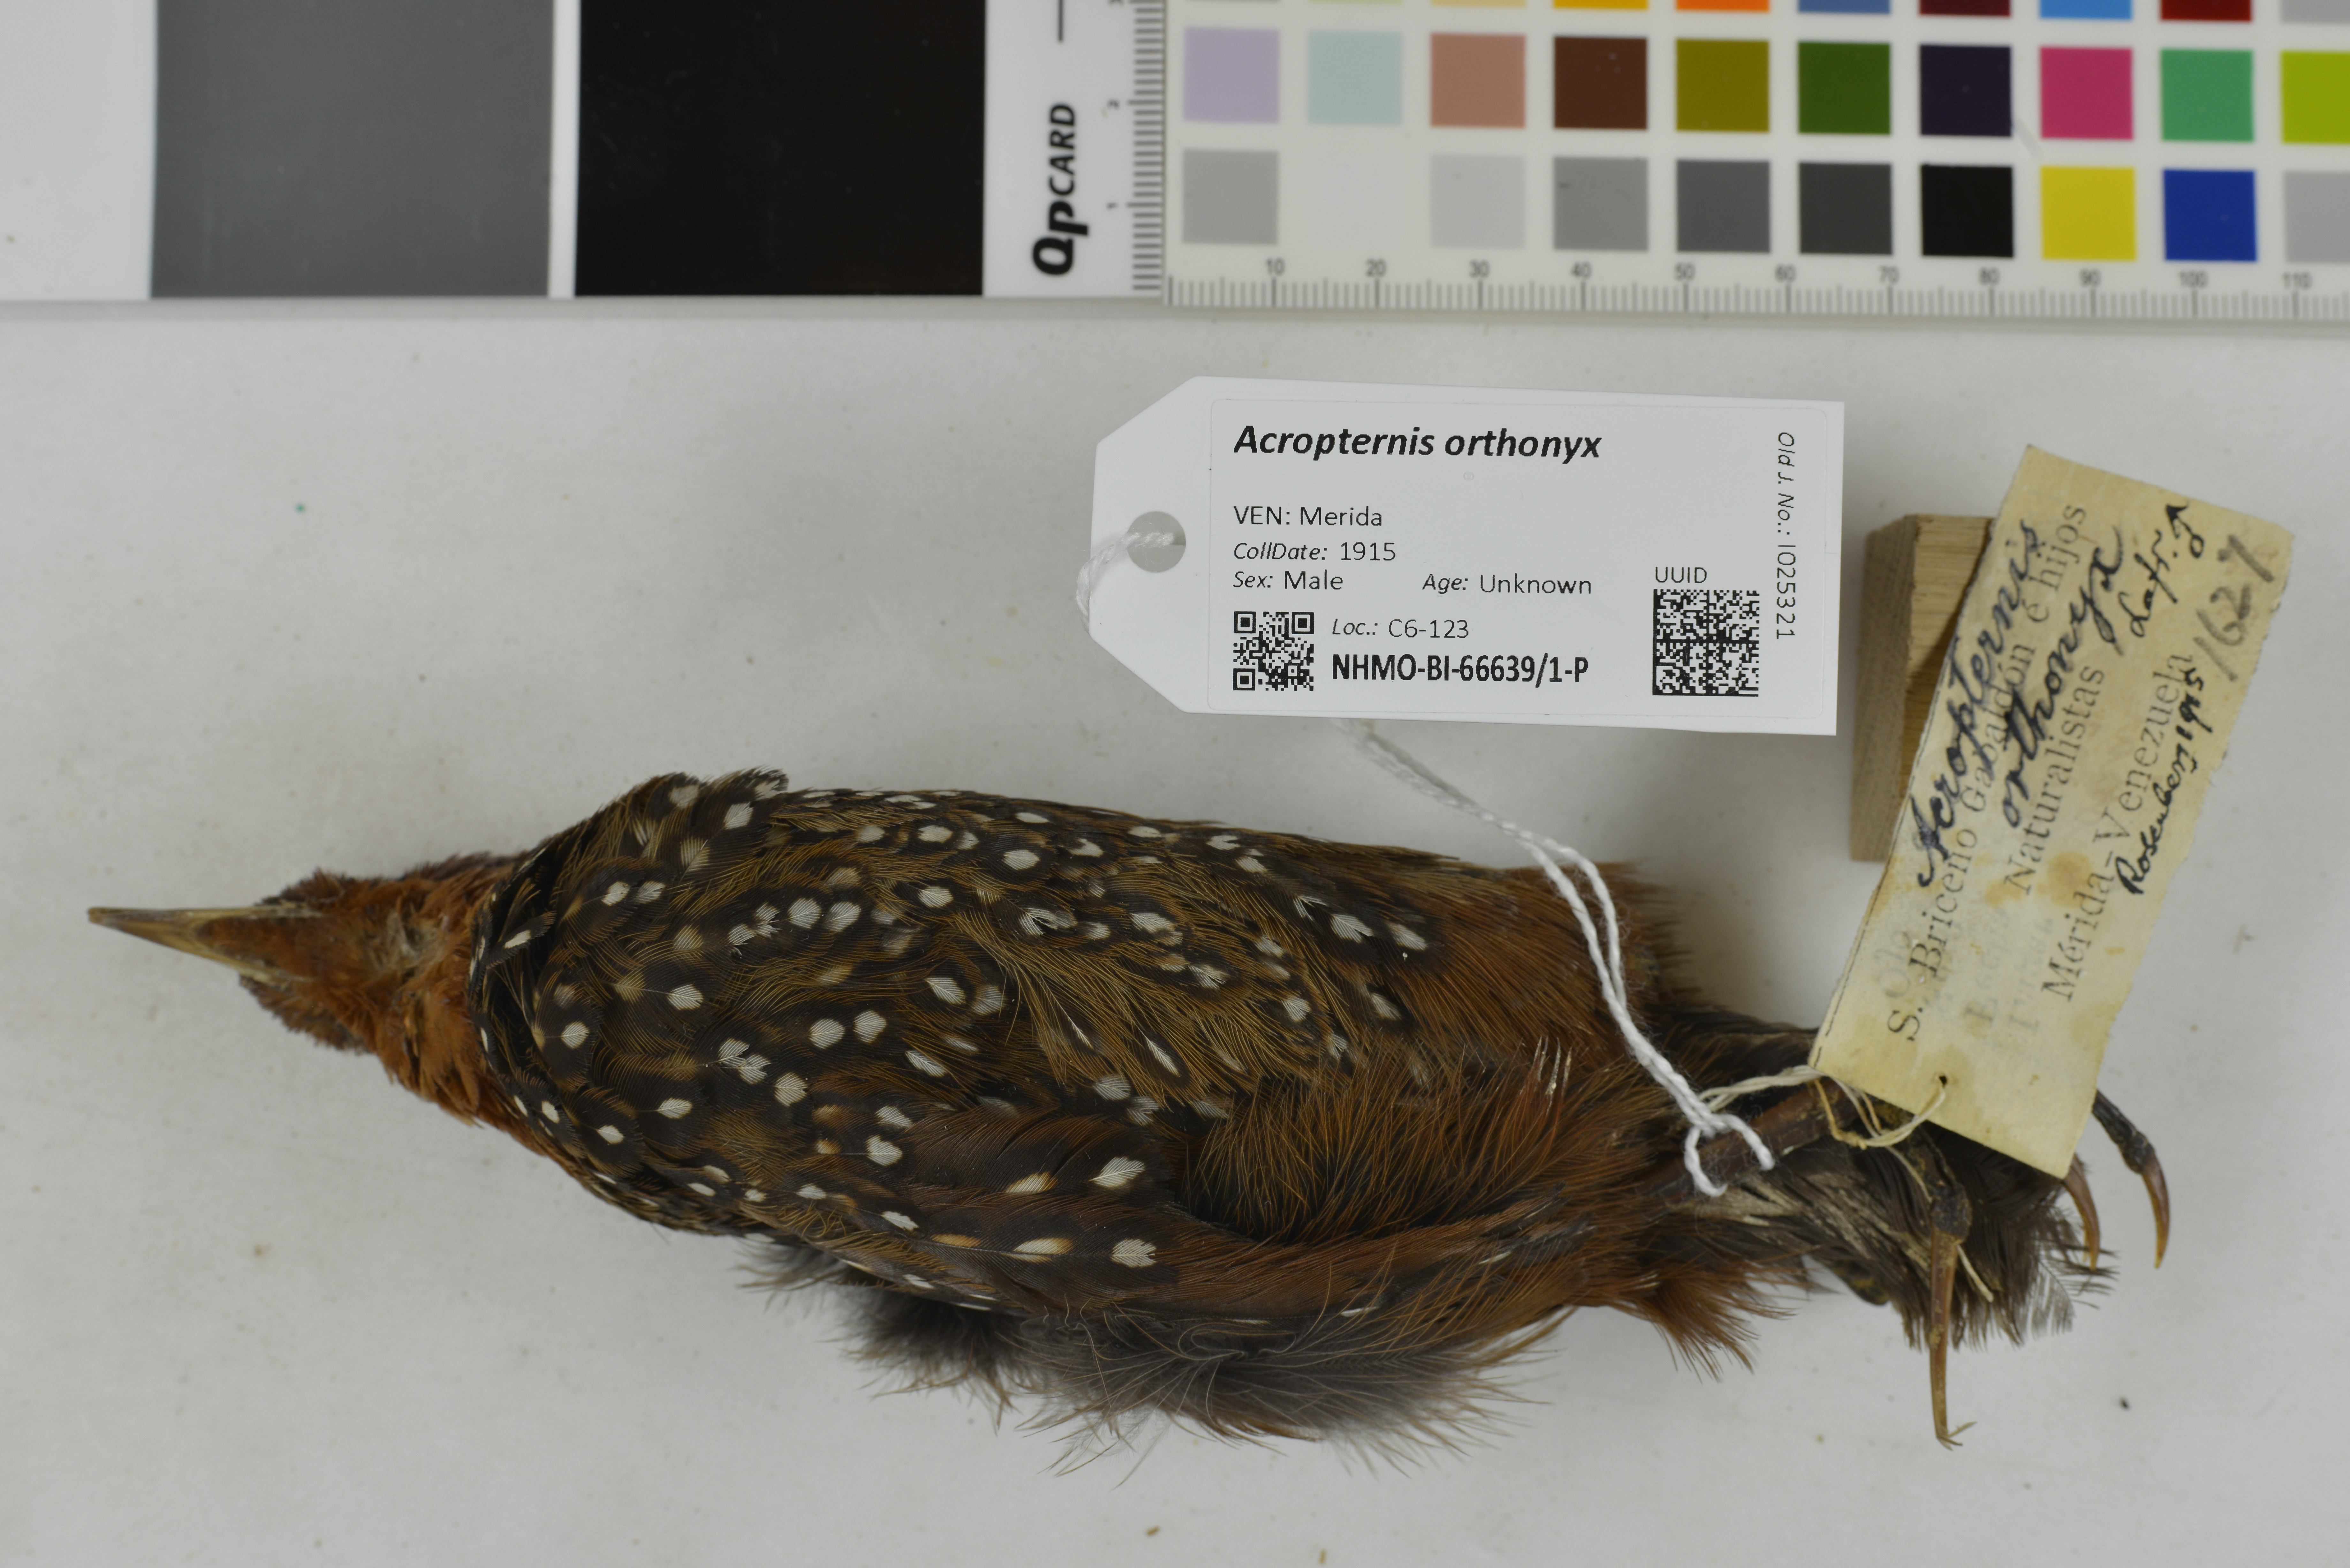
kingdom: Animalia
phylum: Chordata
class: Aves
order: Passeriformes
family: Rhinocryptidae
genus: Acropternis
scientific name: Acropternis orthonyx
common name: Ocellated tapaculo
